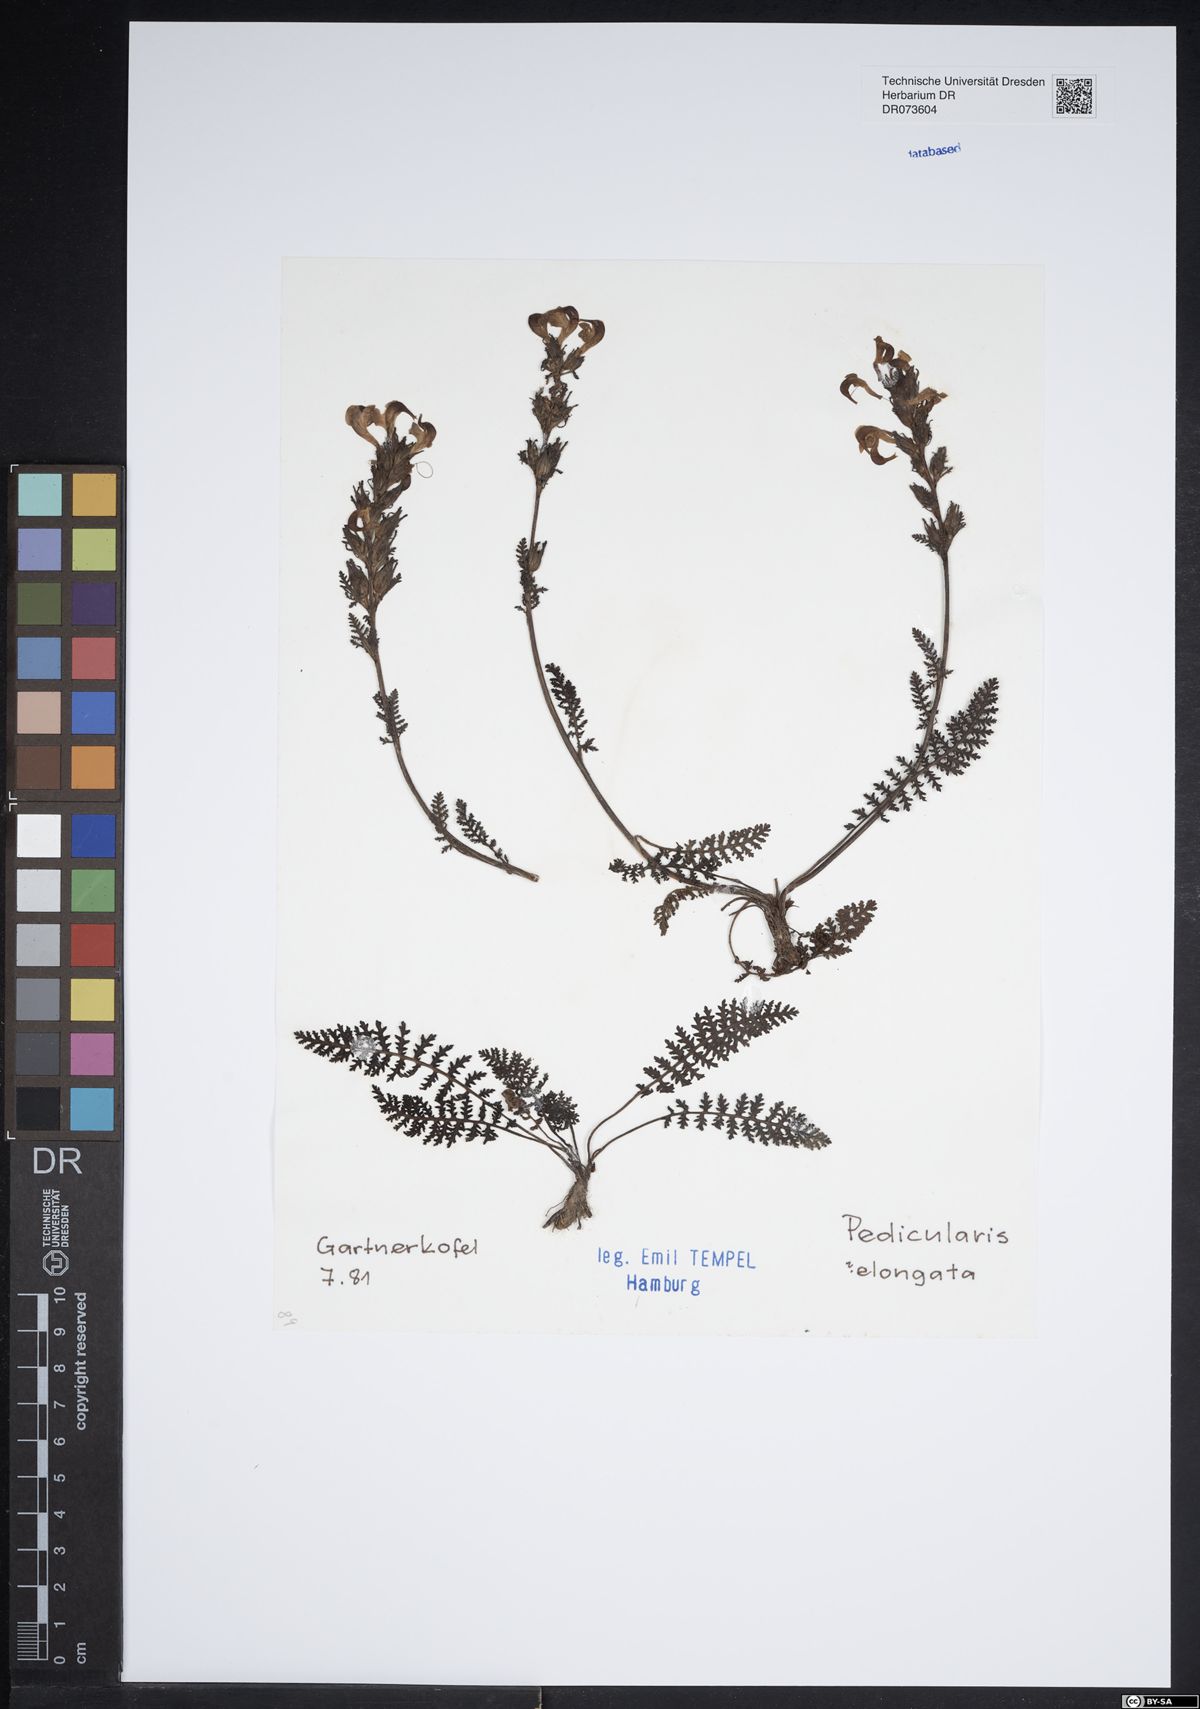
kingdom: Plantae
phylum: Tracheophyta
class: Magnoliopsida
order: Lamiales
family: Orobanchaceae
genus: Pedicularis
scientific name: Pedicularis elongata
